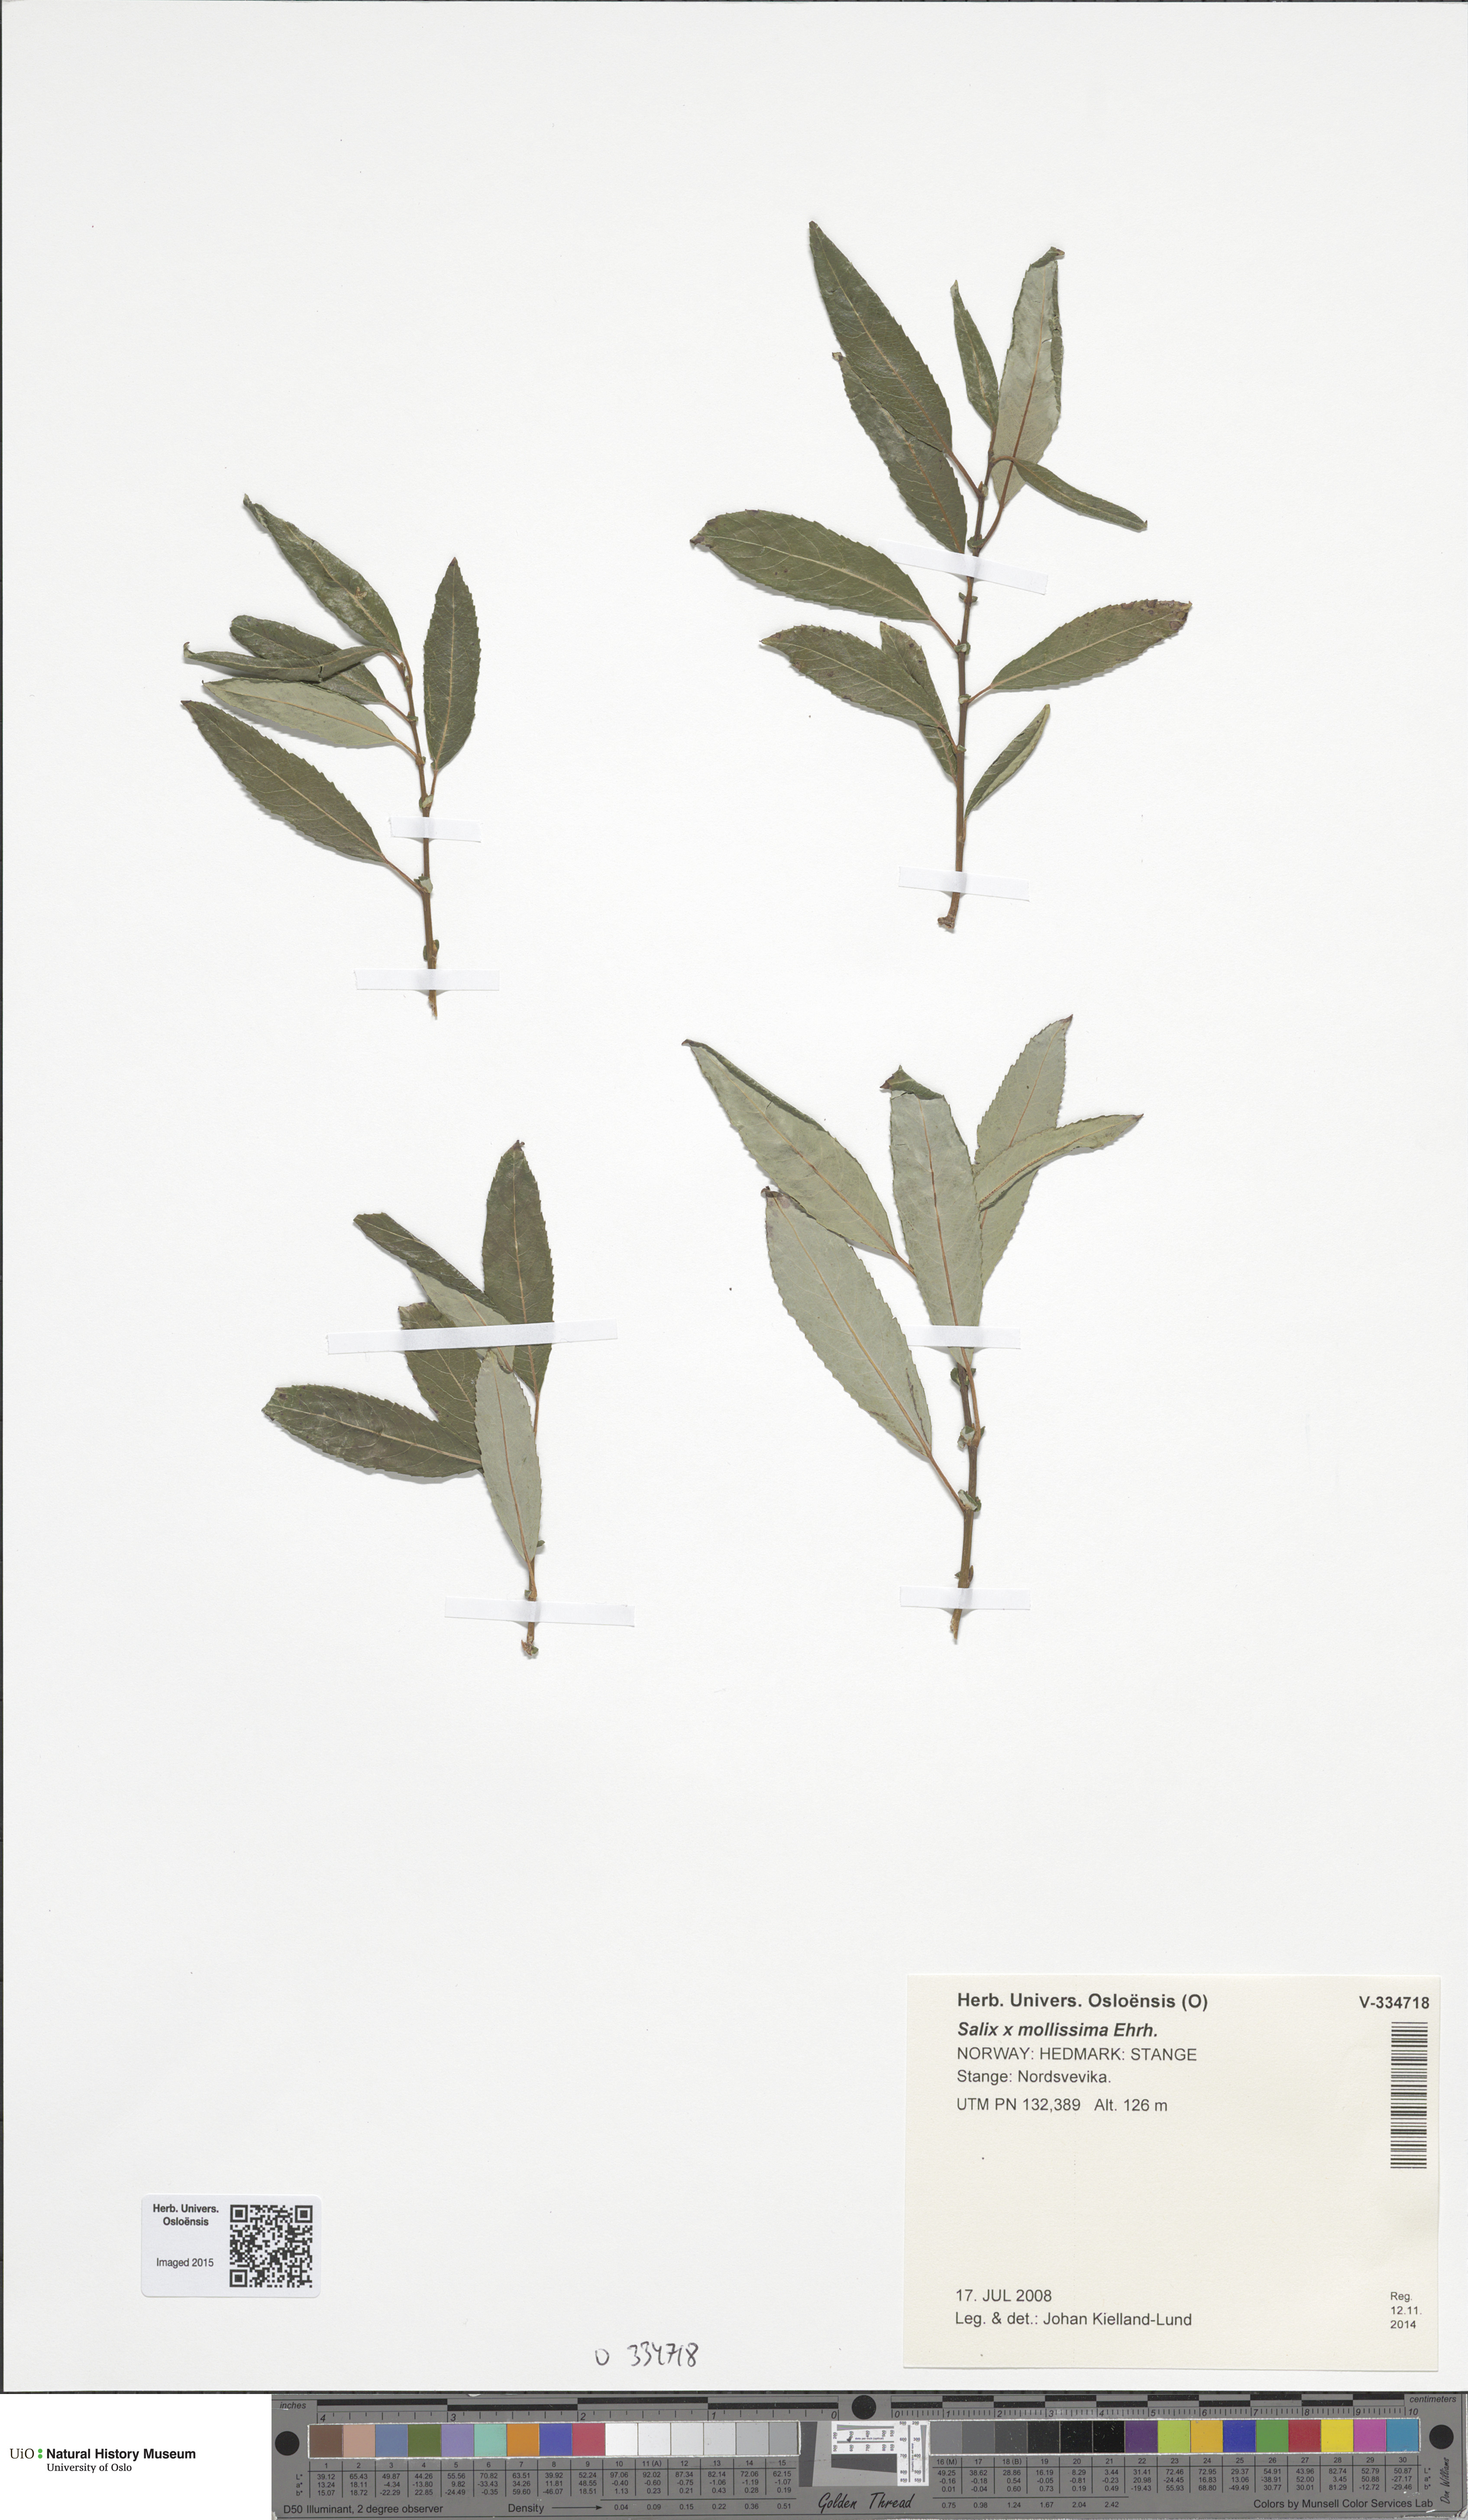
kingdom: Plantae
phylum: Tracheophyta
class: Magnoliopsida
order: Malpighiales
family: Salicaceae
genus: Salix
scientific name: Salix triandra
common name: Almond willow
